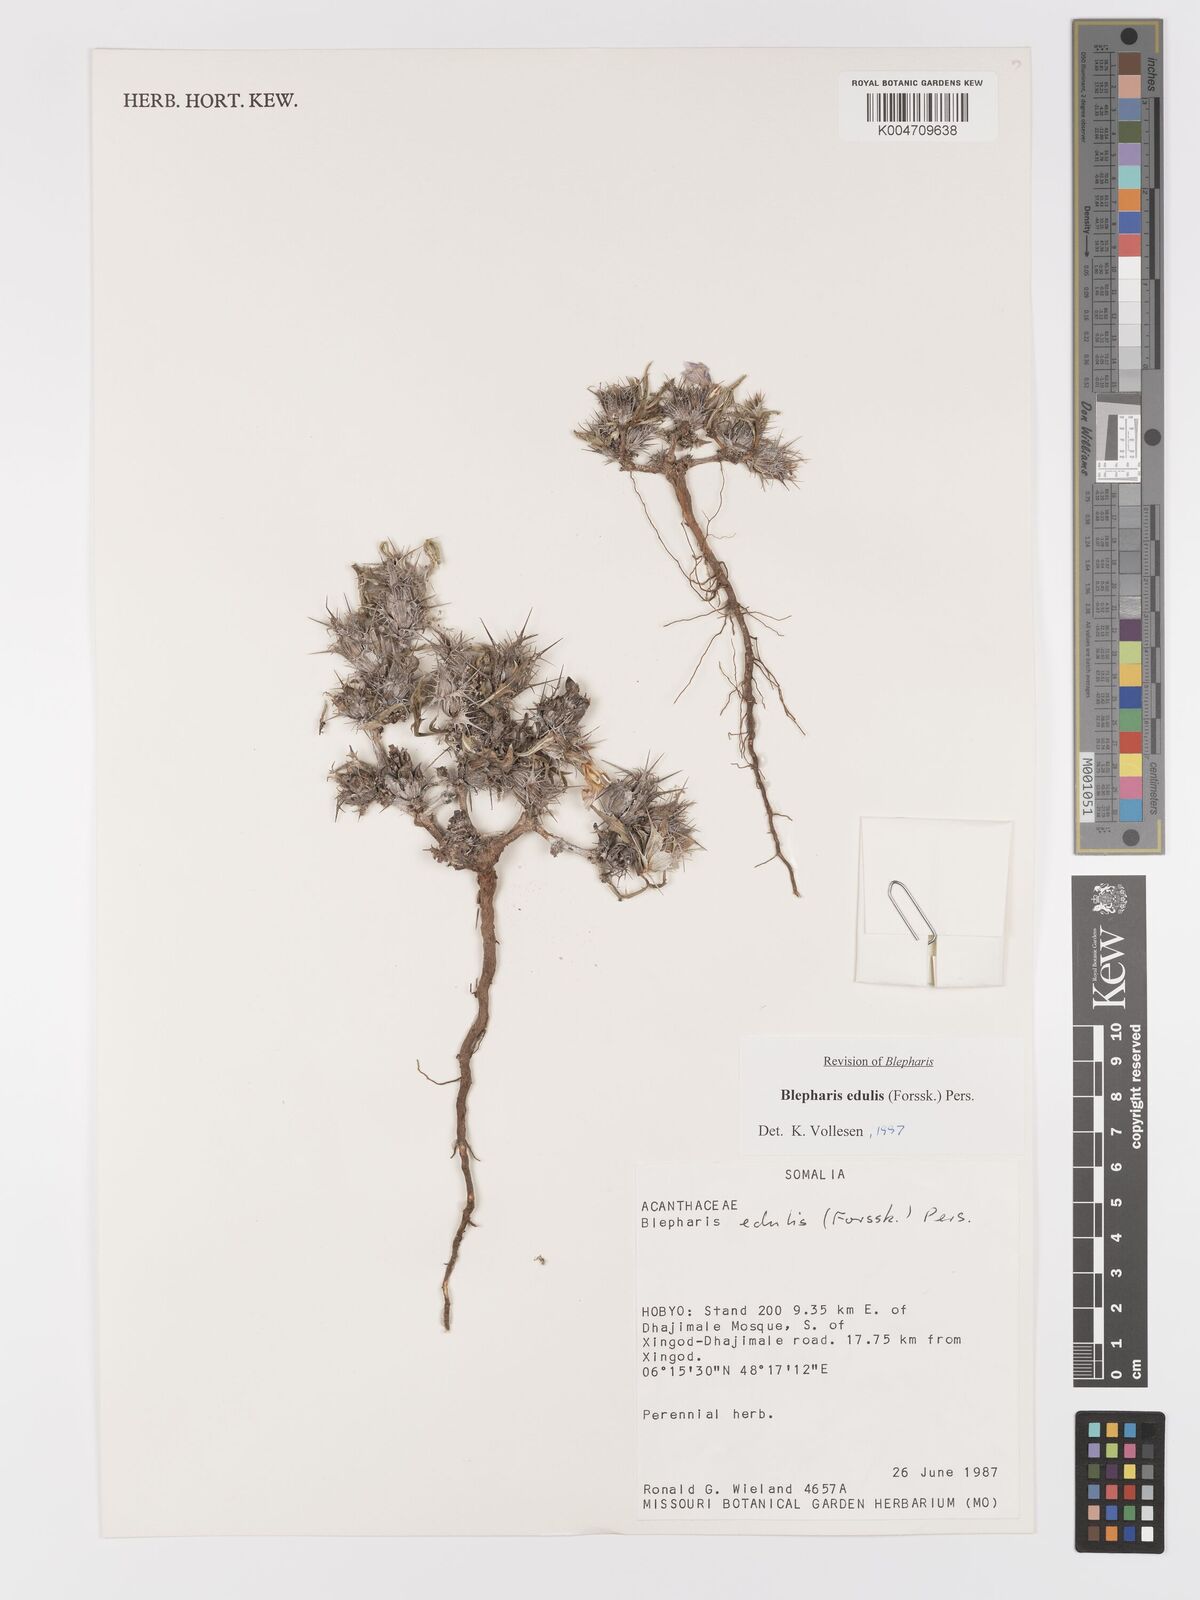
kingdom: Plantae
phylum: Tracheophyta
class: Magnoliopsida
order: Lamiales
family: Acanthaceae
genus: Blepharis
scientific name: Blepharis edulis
